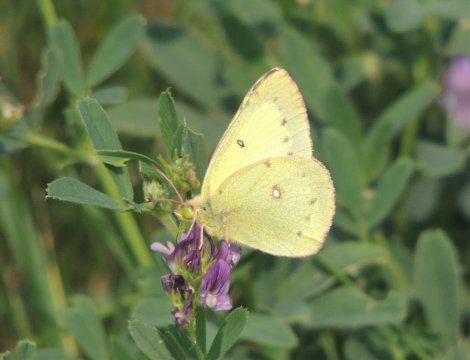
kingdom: Animalia
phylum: Arthropoda
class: Insecta
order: Lepidoptera
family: Pieridae
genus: Colias
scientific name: Colias eurytheme
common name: Orange Sulphur
